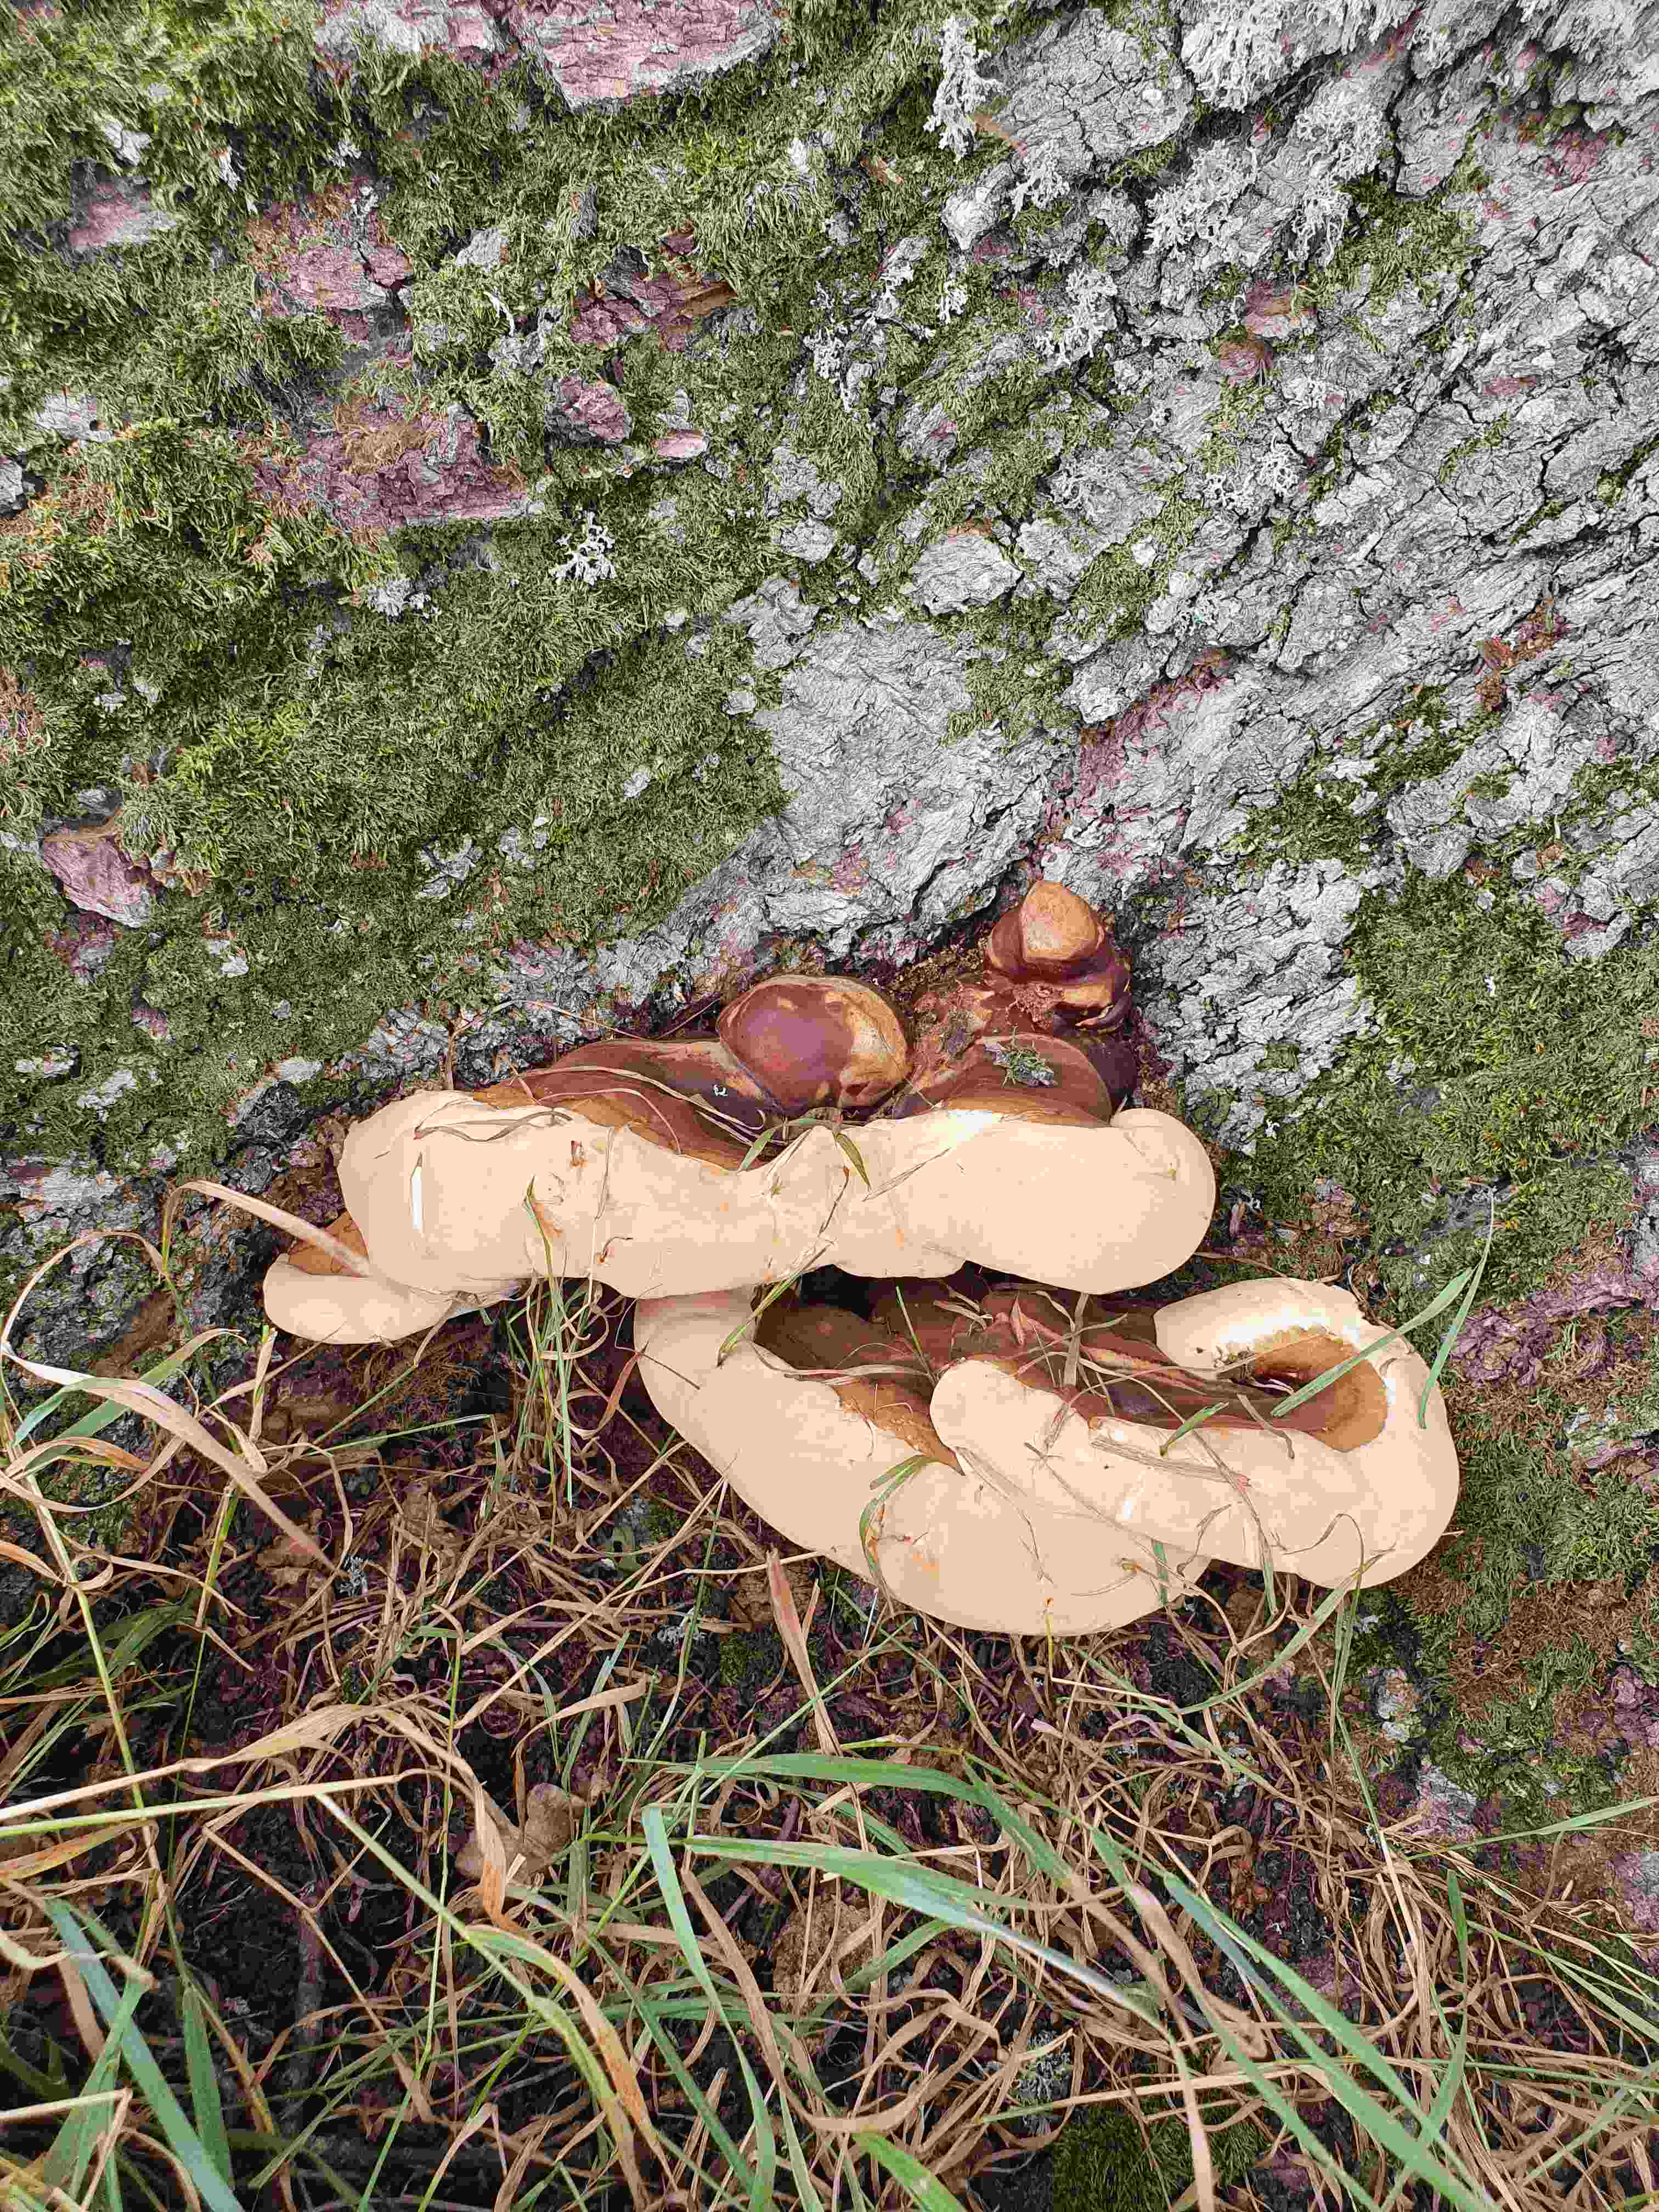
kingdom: Fungi
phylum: Basidiomycota
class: Agaricomycetes
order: Polyporales
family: Polyporaceae
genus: Ganoderma
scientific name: Ganoderma resinaceum
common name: gyldenbrun lakporesvamp
